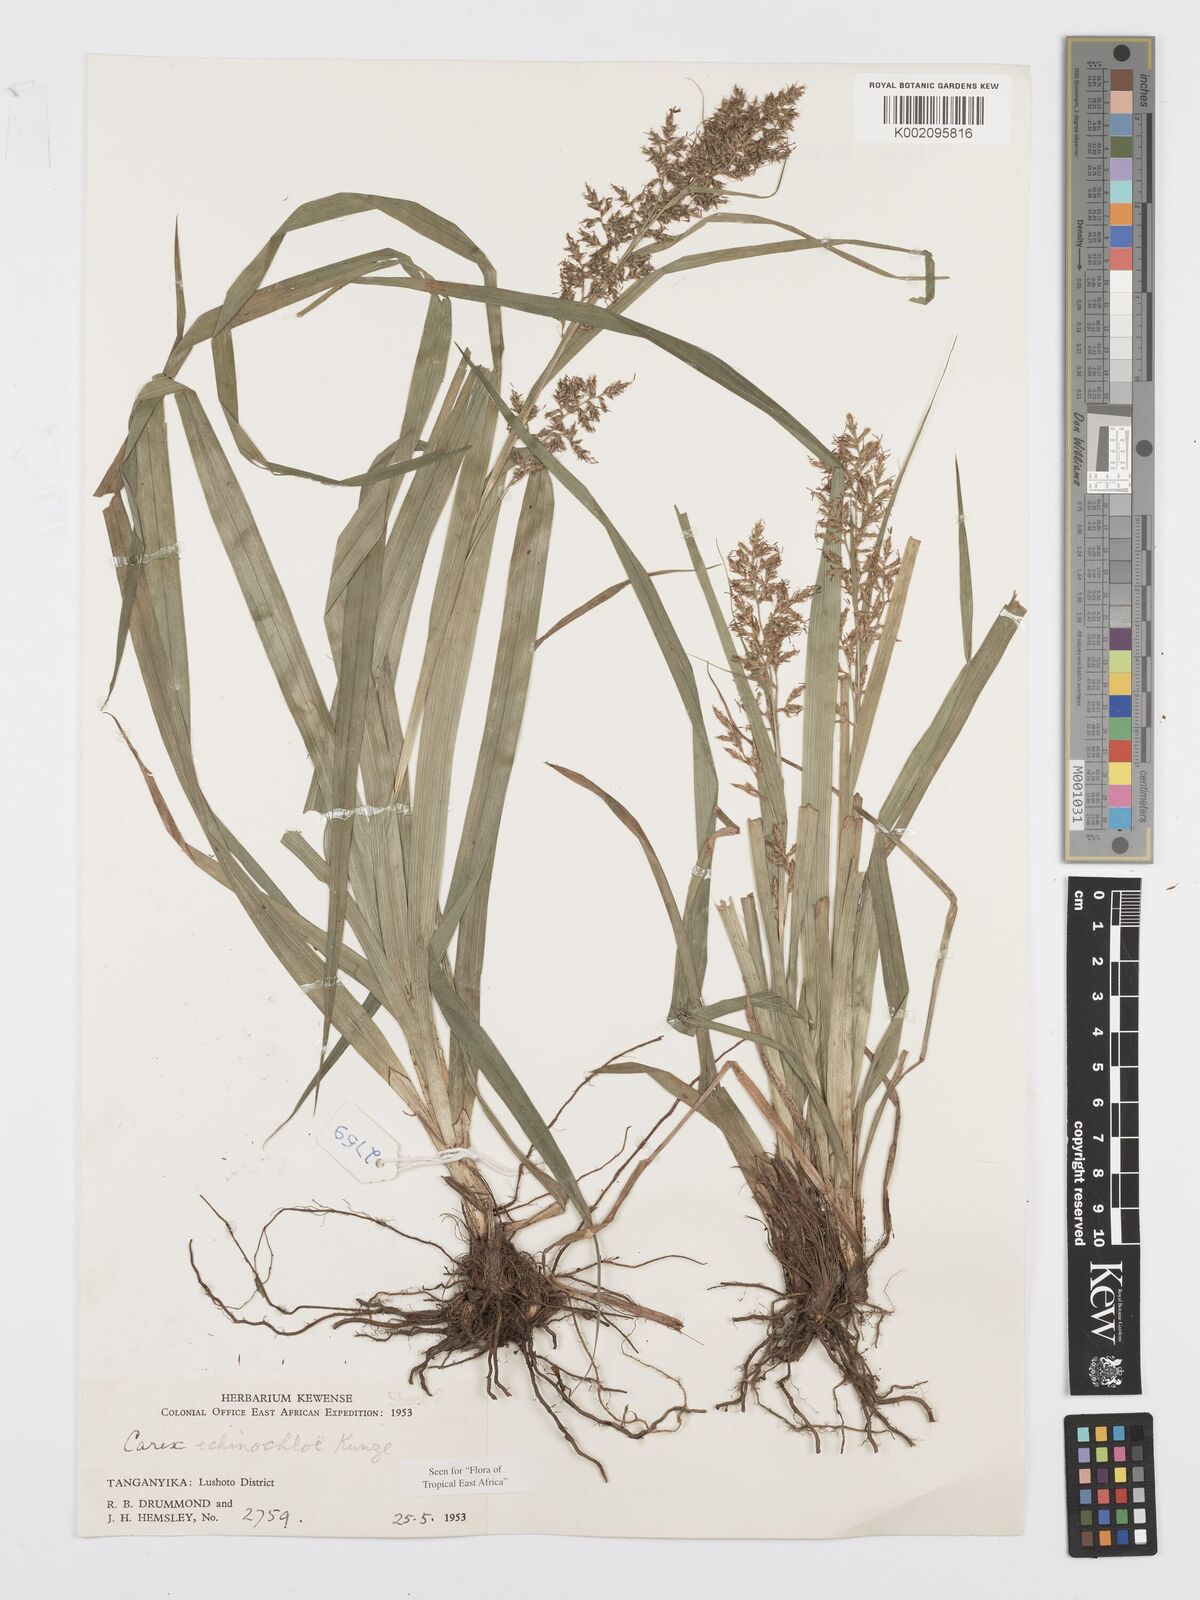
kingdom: Plantae
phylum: Tracheophyta
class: Liliopsida
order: Poales
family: Cyperaceae
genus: Carex
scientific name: Carex echinochloe
